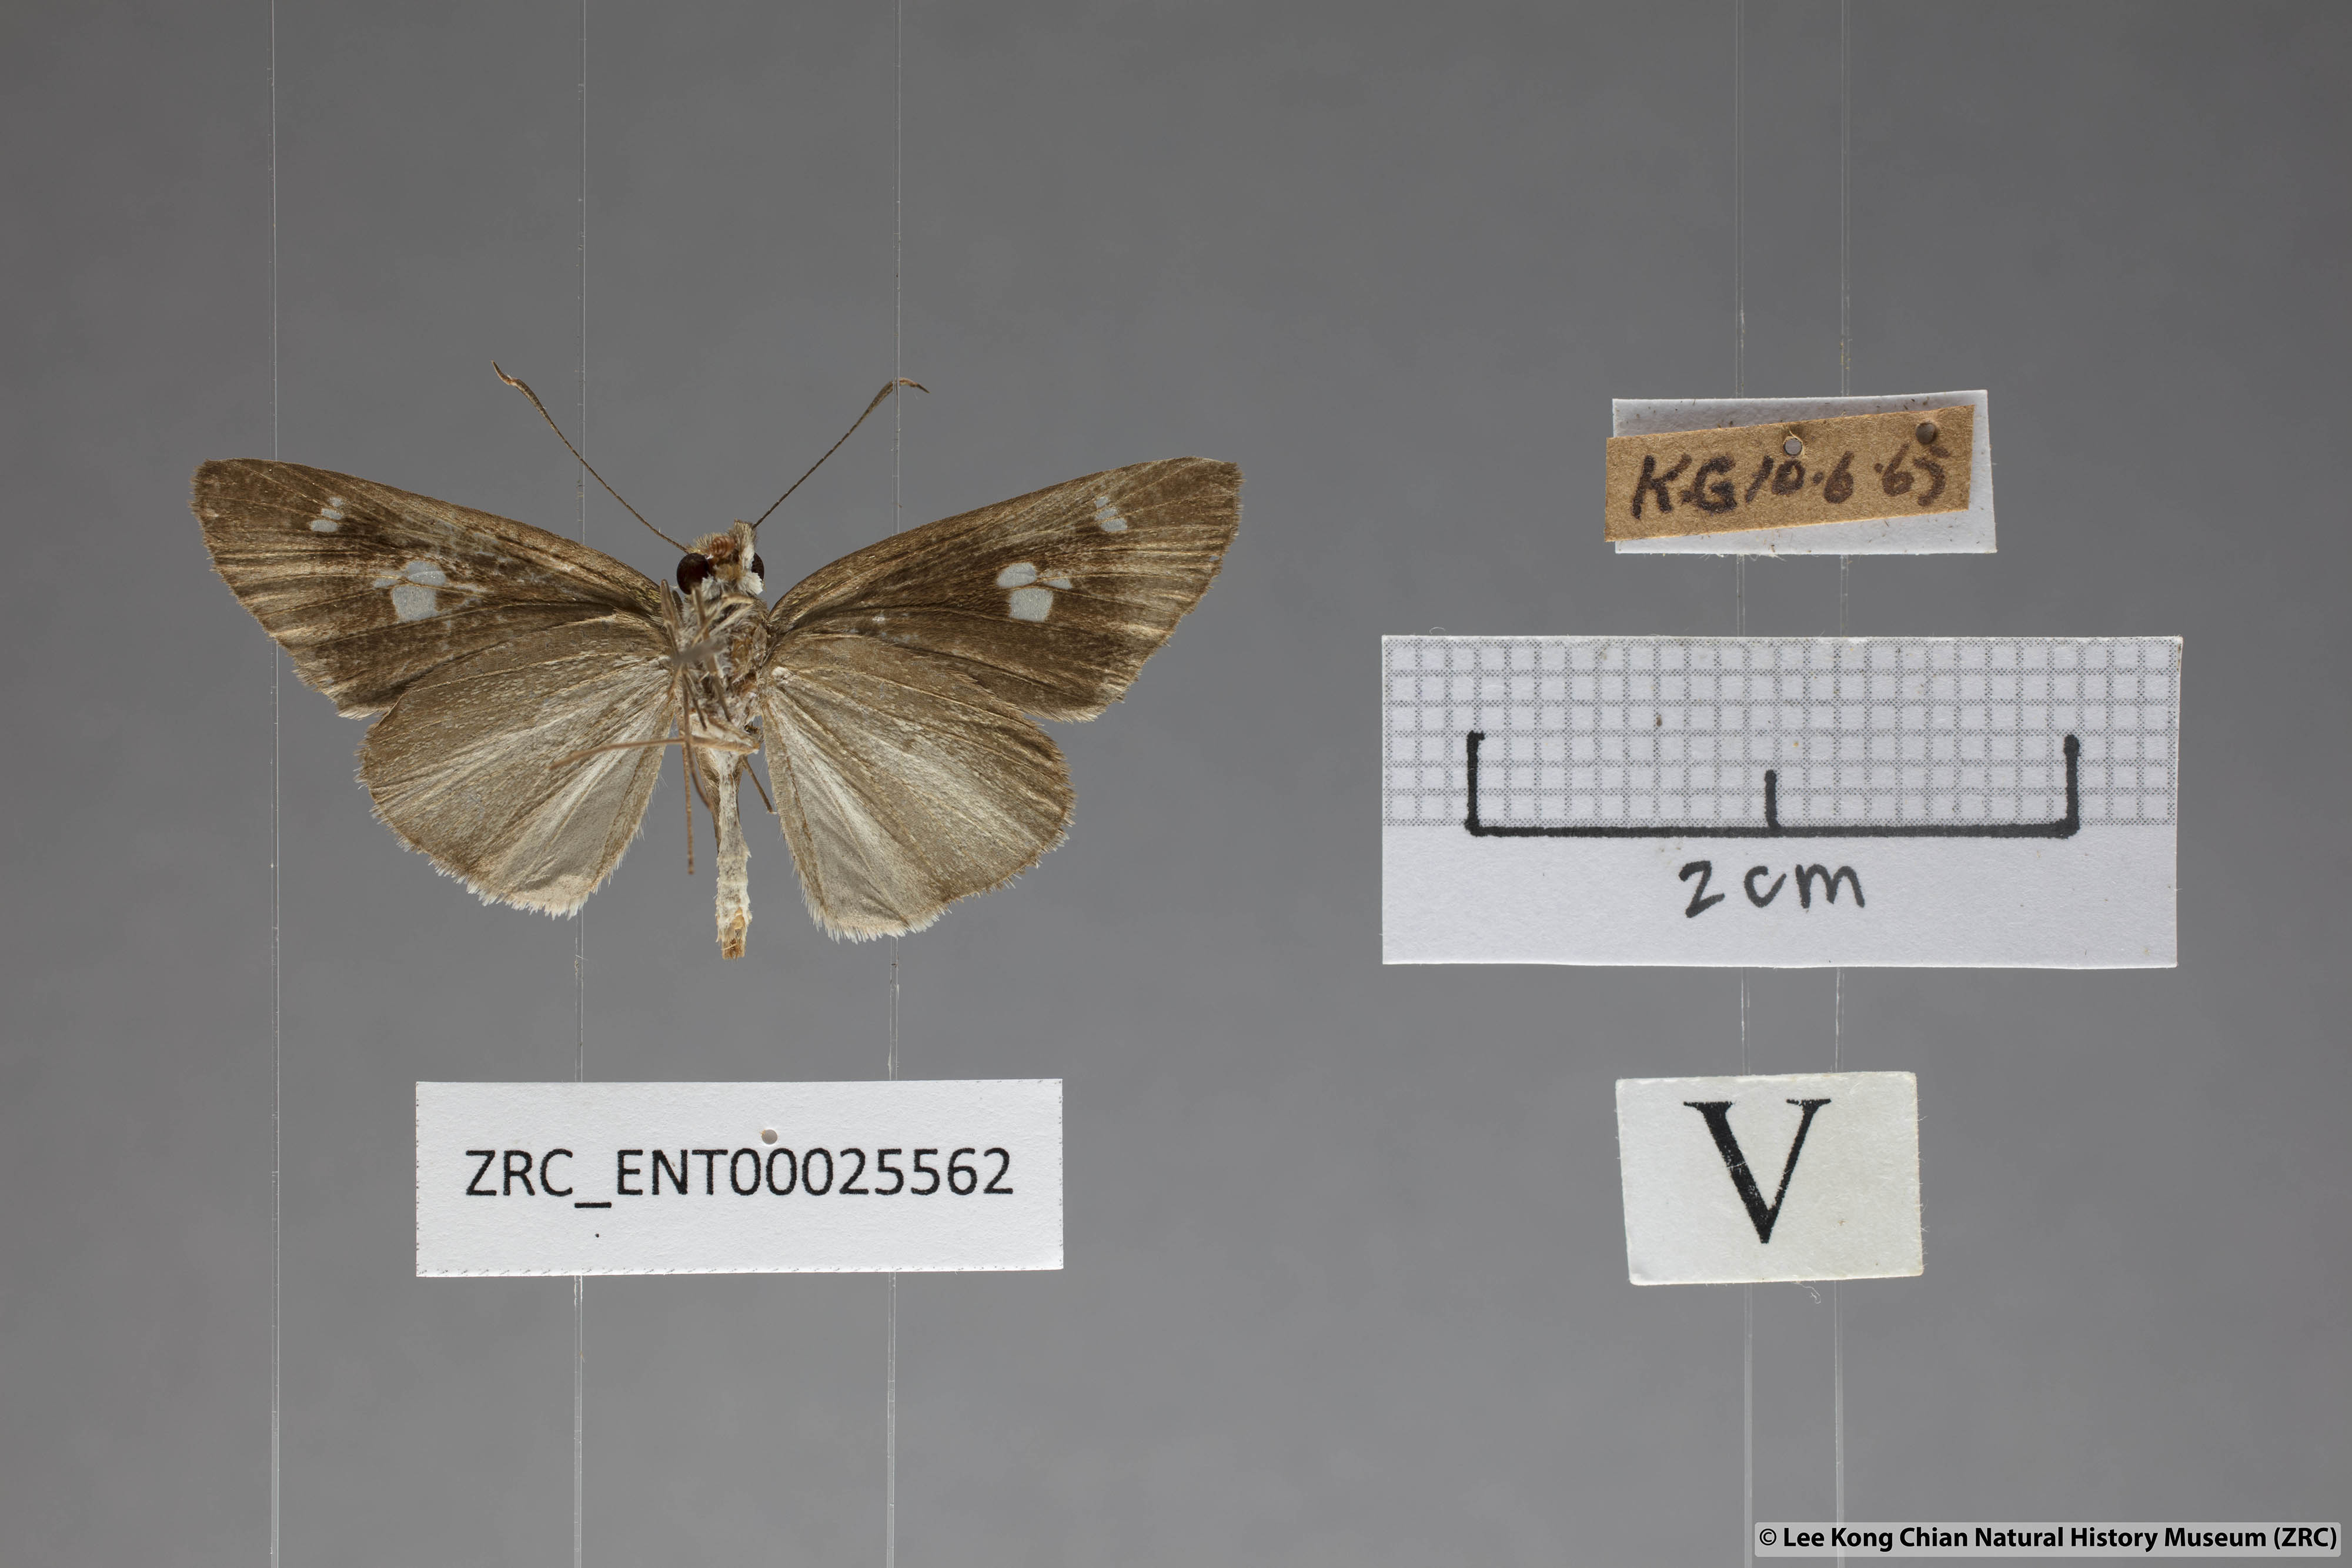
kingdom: Animalia
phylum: Arthropoda
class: Insecta
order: Lepidoptera
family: Hesperiidae
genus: Suada
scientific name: Suada swerga
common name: Grass bob
